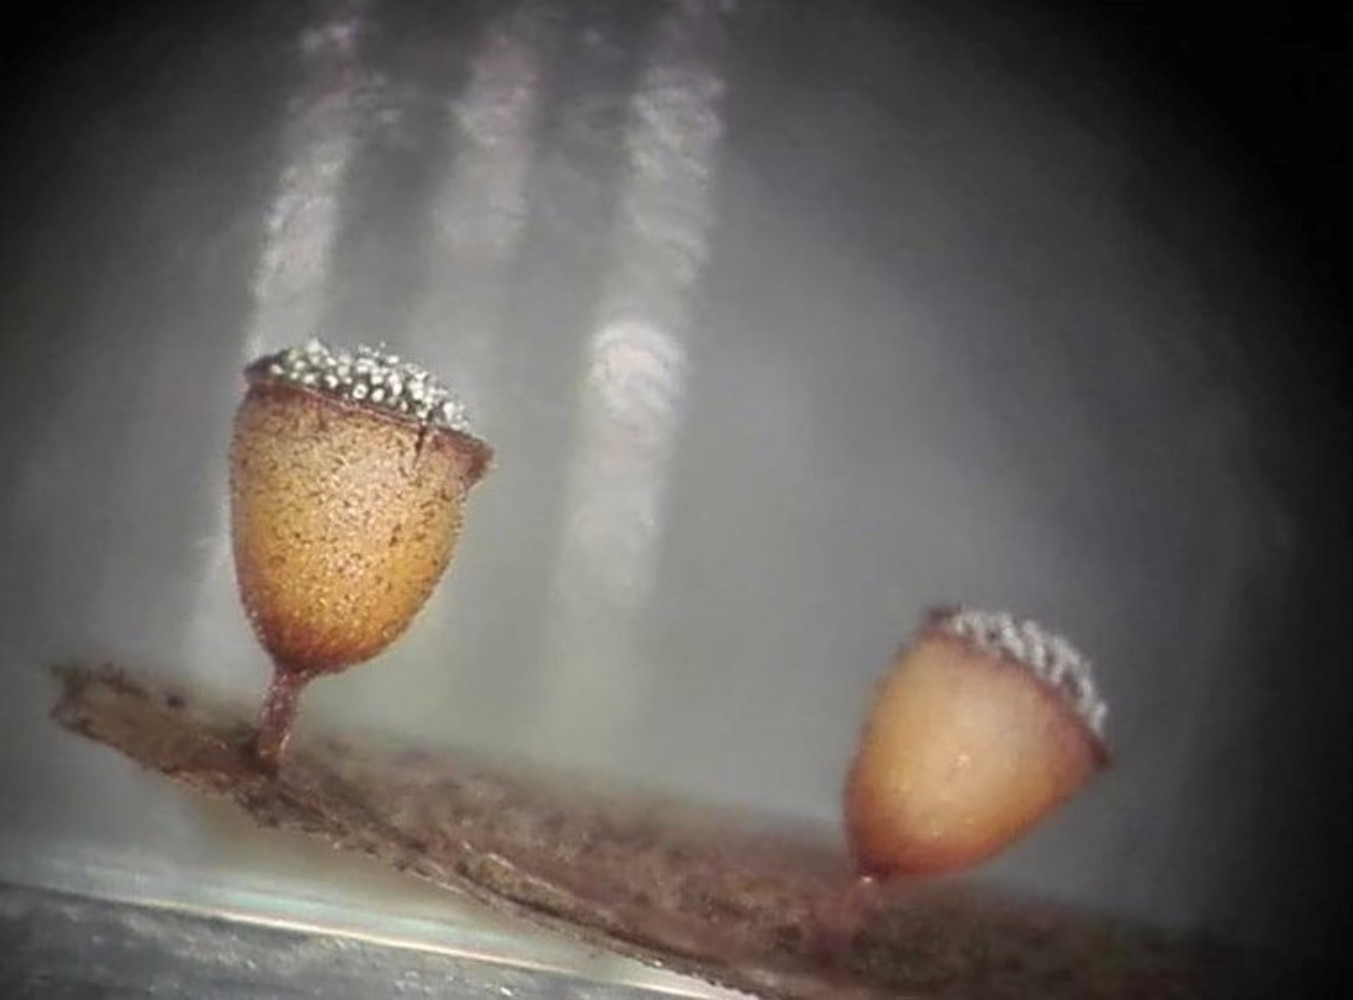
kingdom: Protozoa
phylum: Mycetozoa
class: Myxomycetes
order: Physarales
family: Physaraceae
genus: Craterium
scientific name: Craterium minutum
